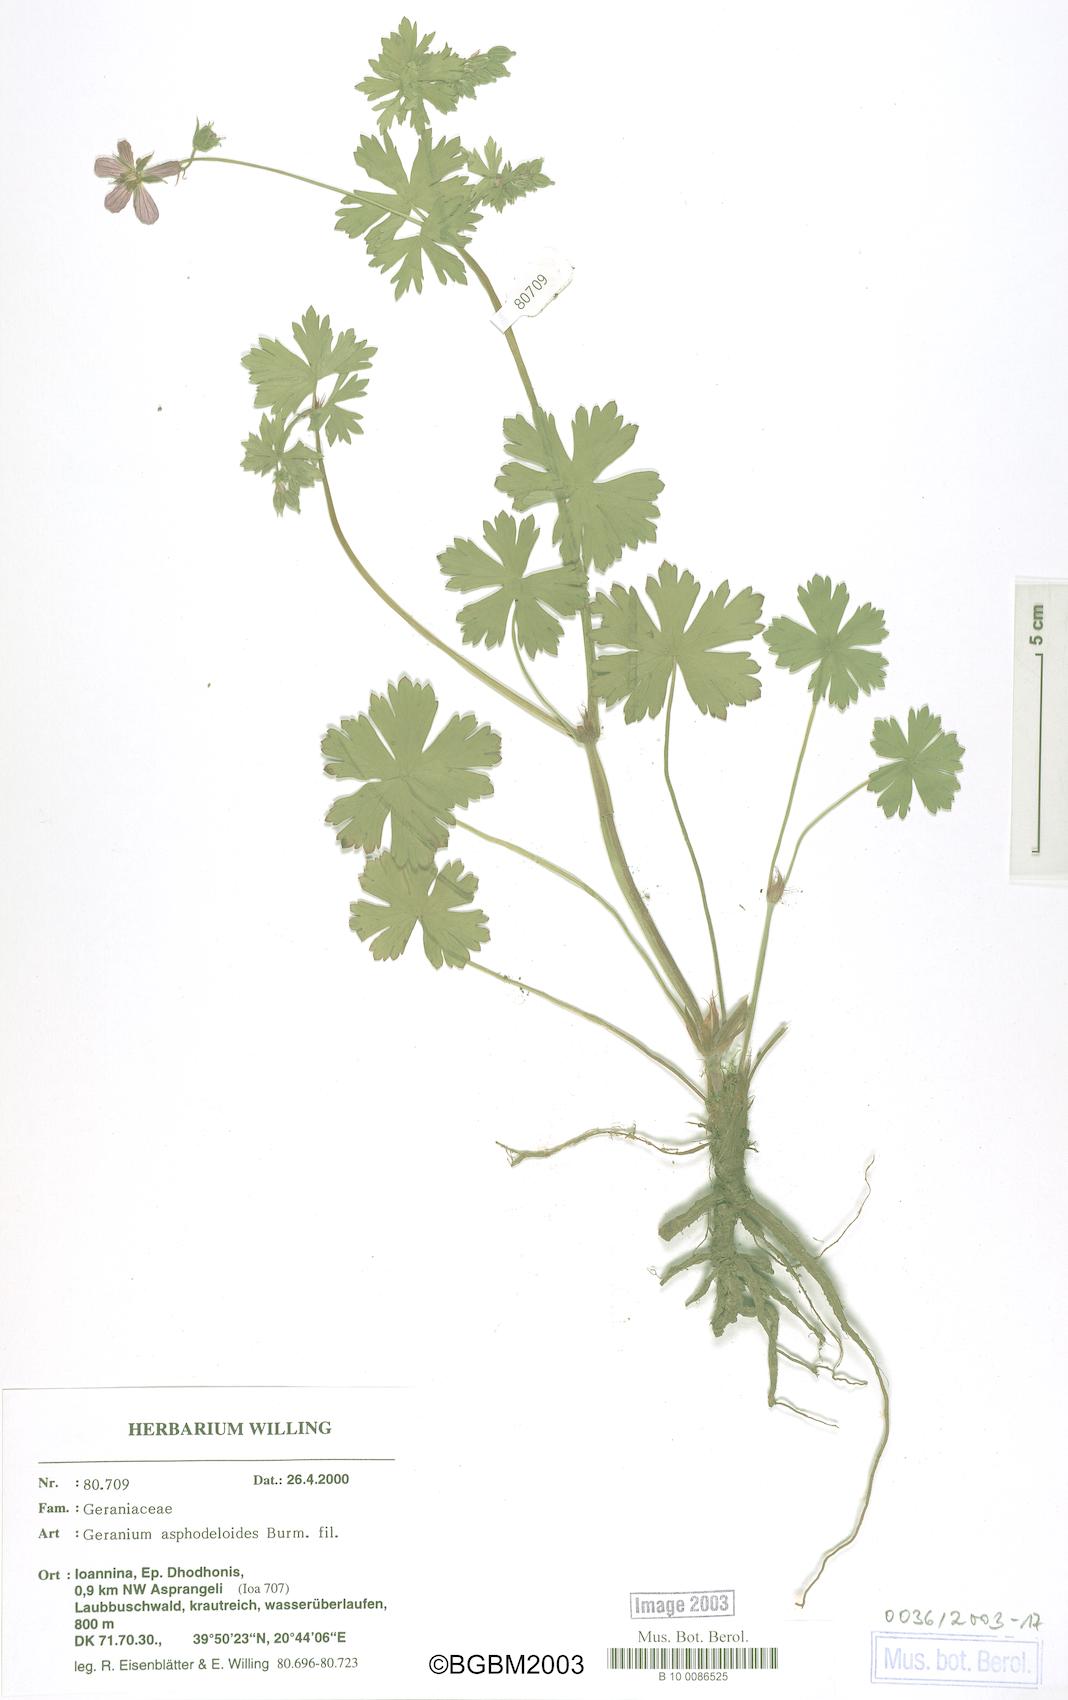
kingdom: Plantae
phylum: Tracheophyta
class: Magnoliopsida
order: Geraniales
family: Geraniaceae
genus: Geranium
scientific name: Geranium asphodeloides
